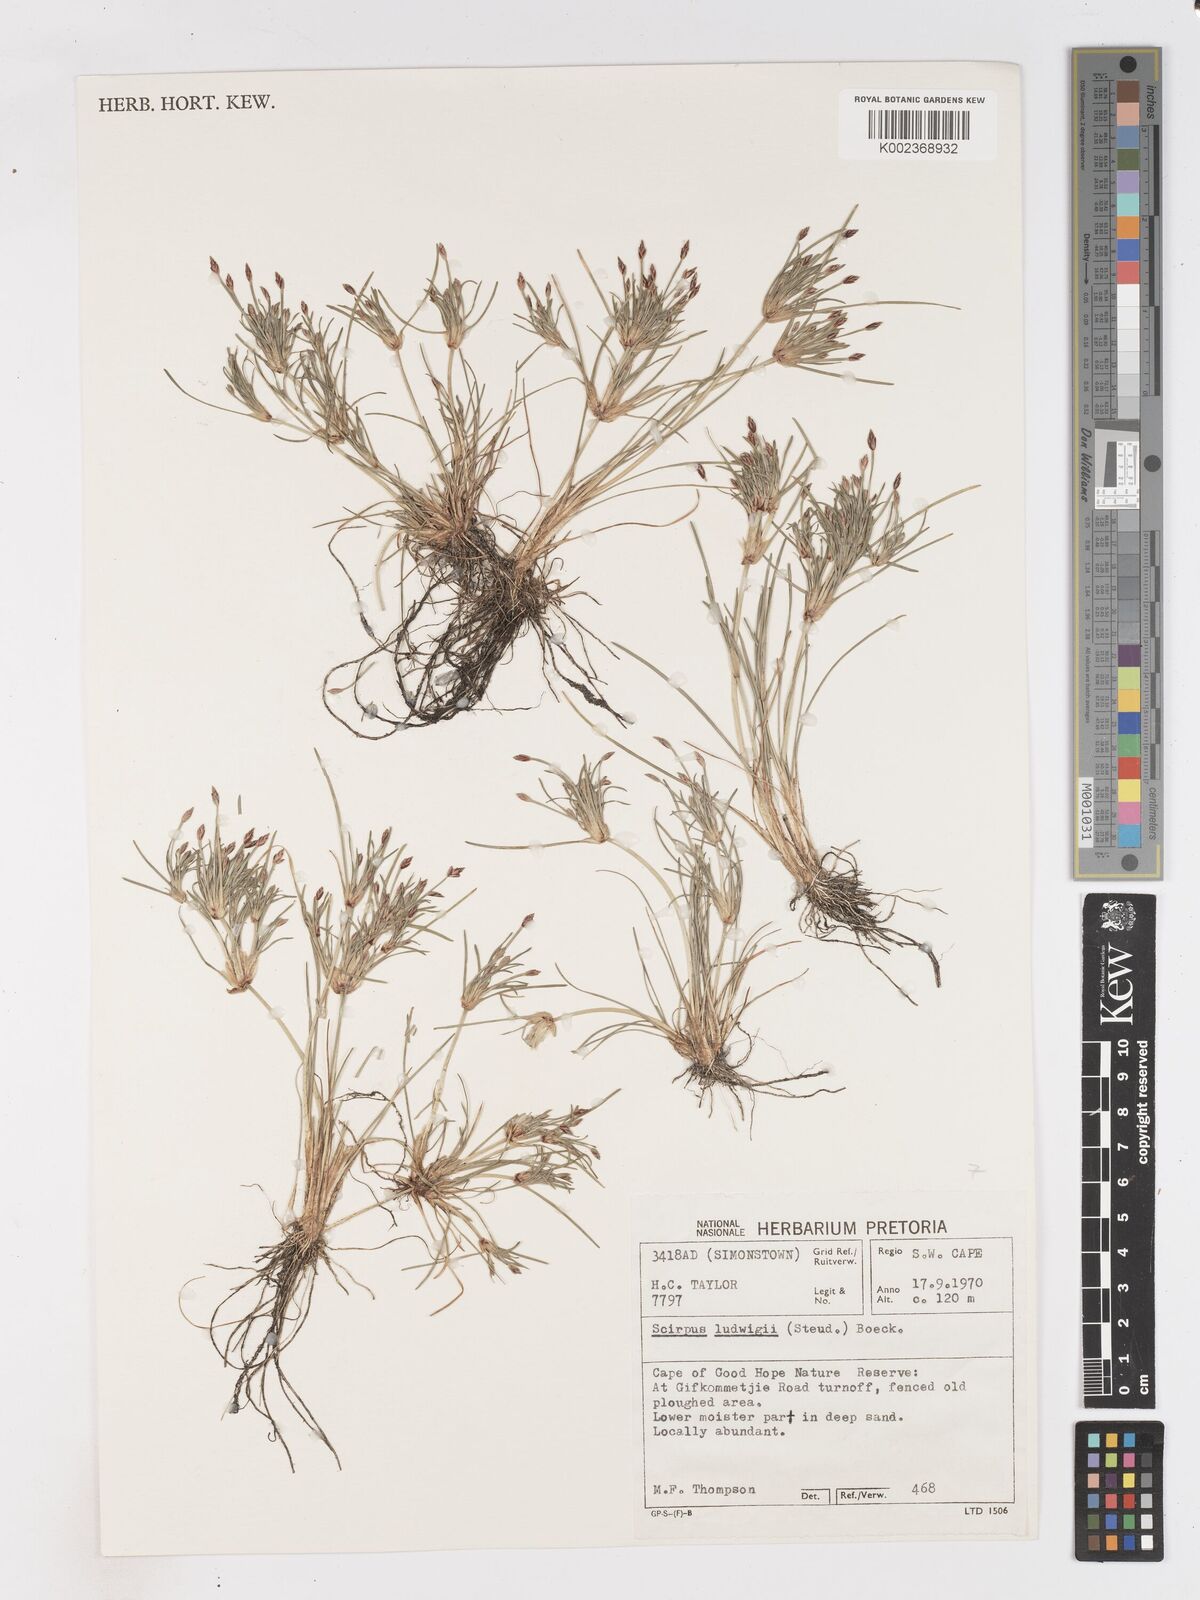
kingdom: Plantae
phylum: Tracheophyta
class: Liliopsida
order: Poales
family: Cyperaceae
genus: Isolepis
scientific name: Isolepis ludwigii
